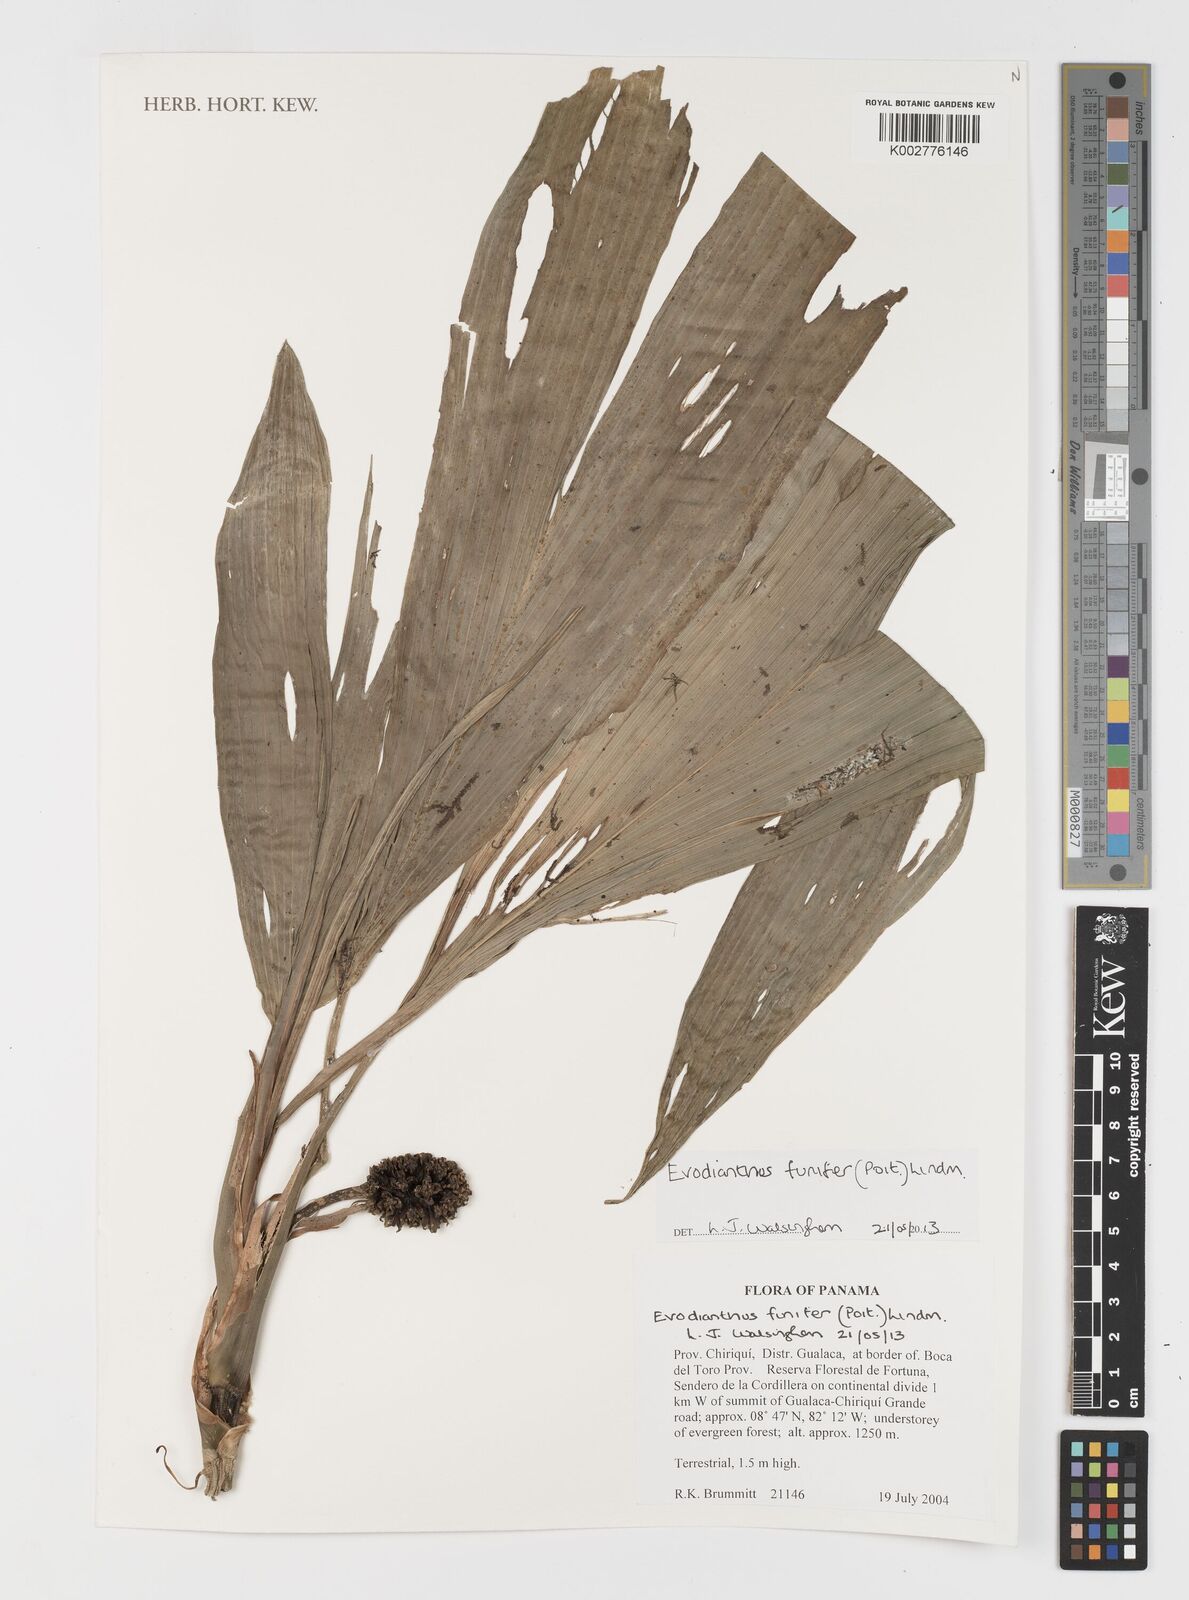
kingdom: Plantae
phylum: Tracheophyta
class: Liliopsida
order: Pandanales
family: Cyclanthaceae
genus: Evodianthus
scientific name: Evodianthus funifer
